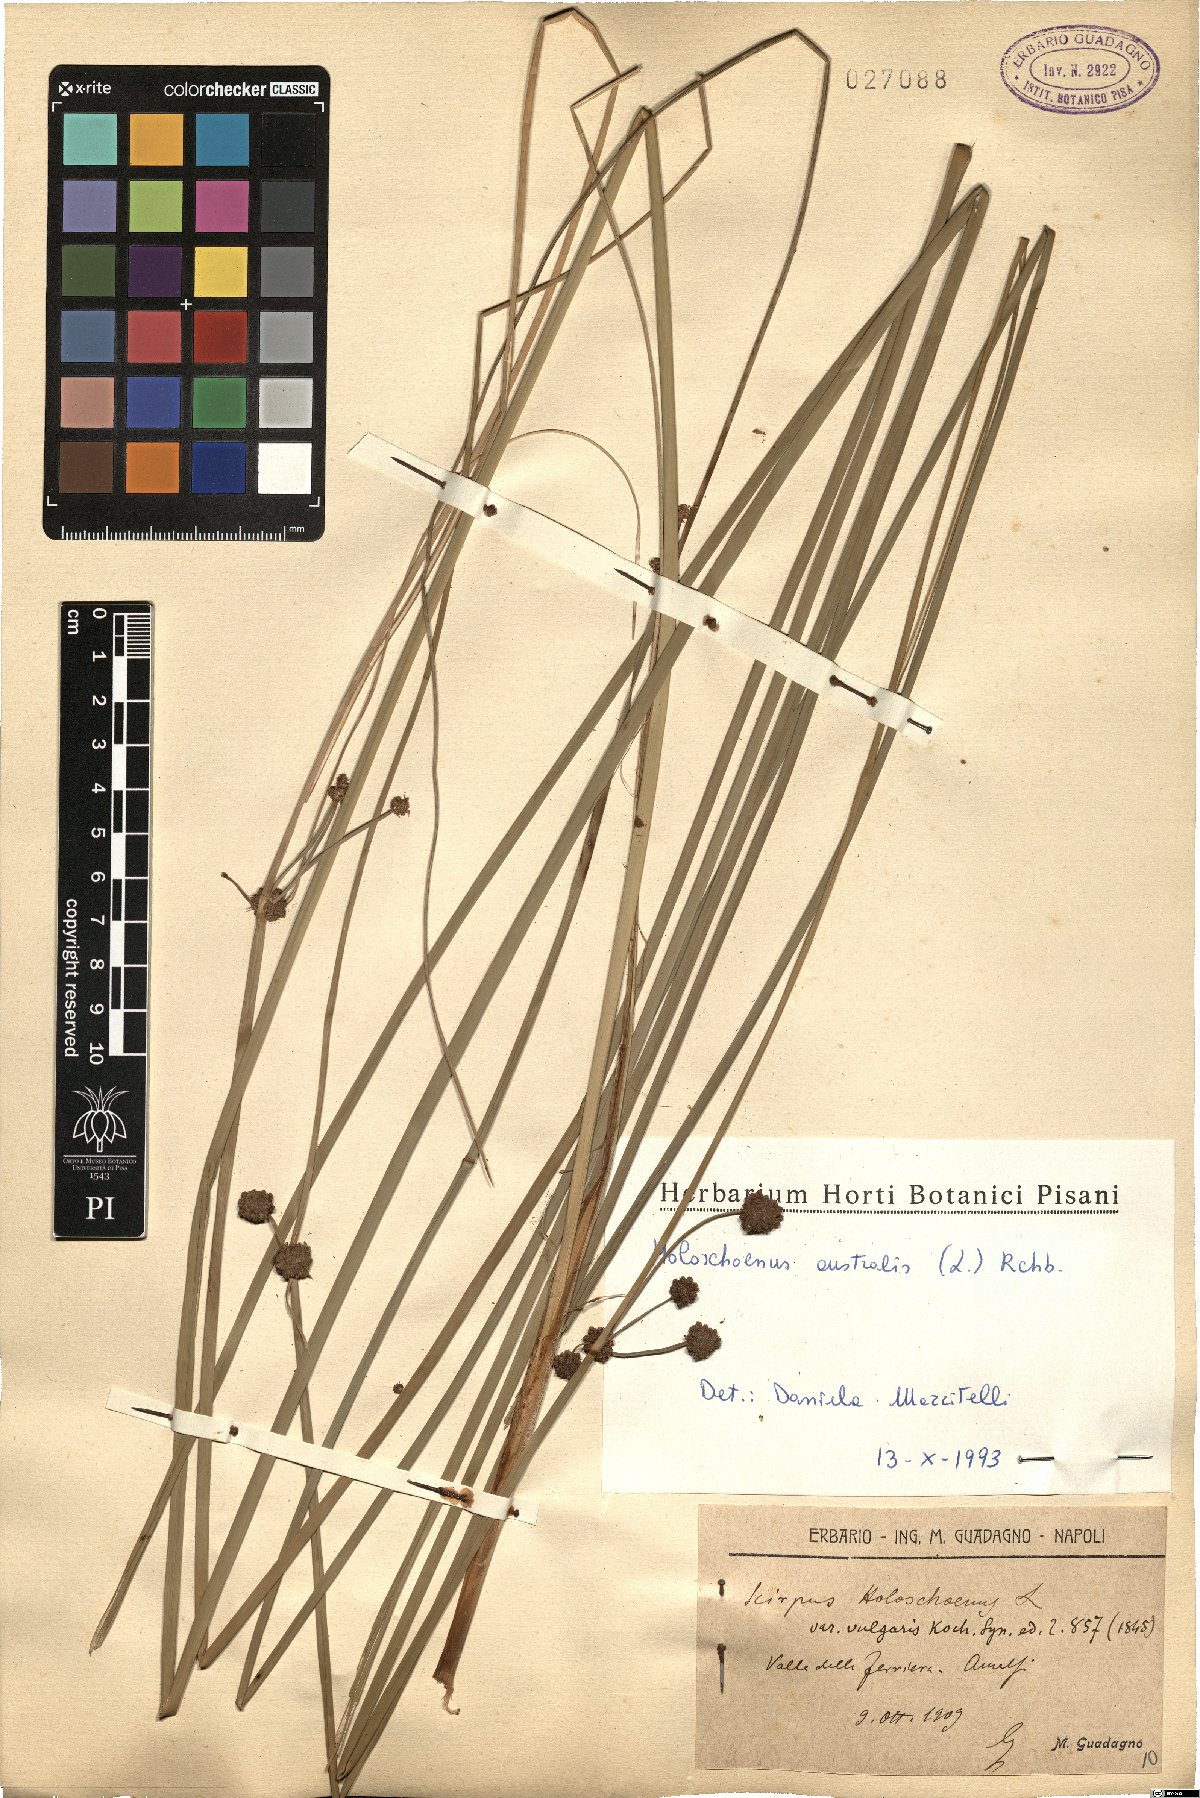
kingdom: Plantae
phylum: Tracheophyta
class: Liliopsida
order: Poales
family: Cyperaceae
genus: Scirpoides
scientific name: Scirpoides holoschoenus
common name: Round-headed club-rush
